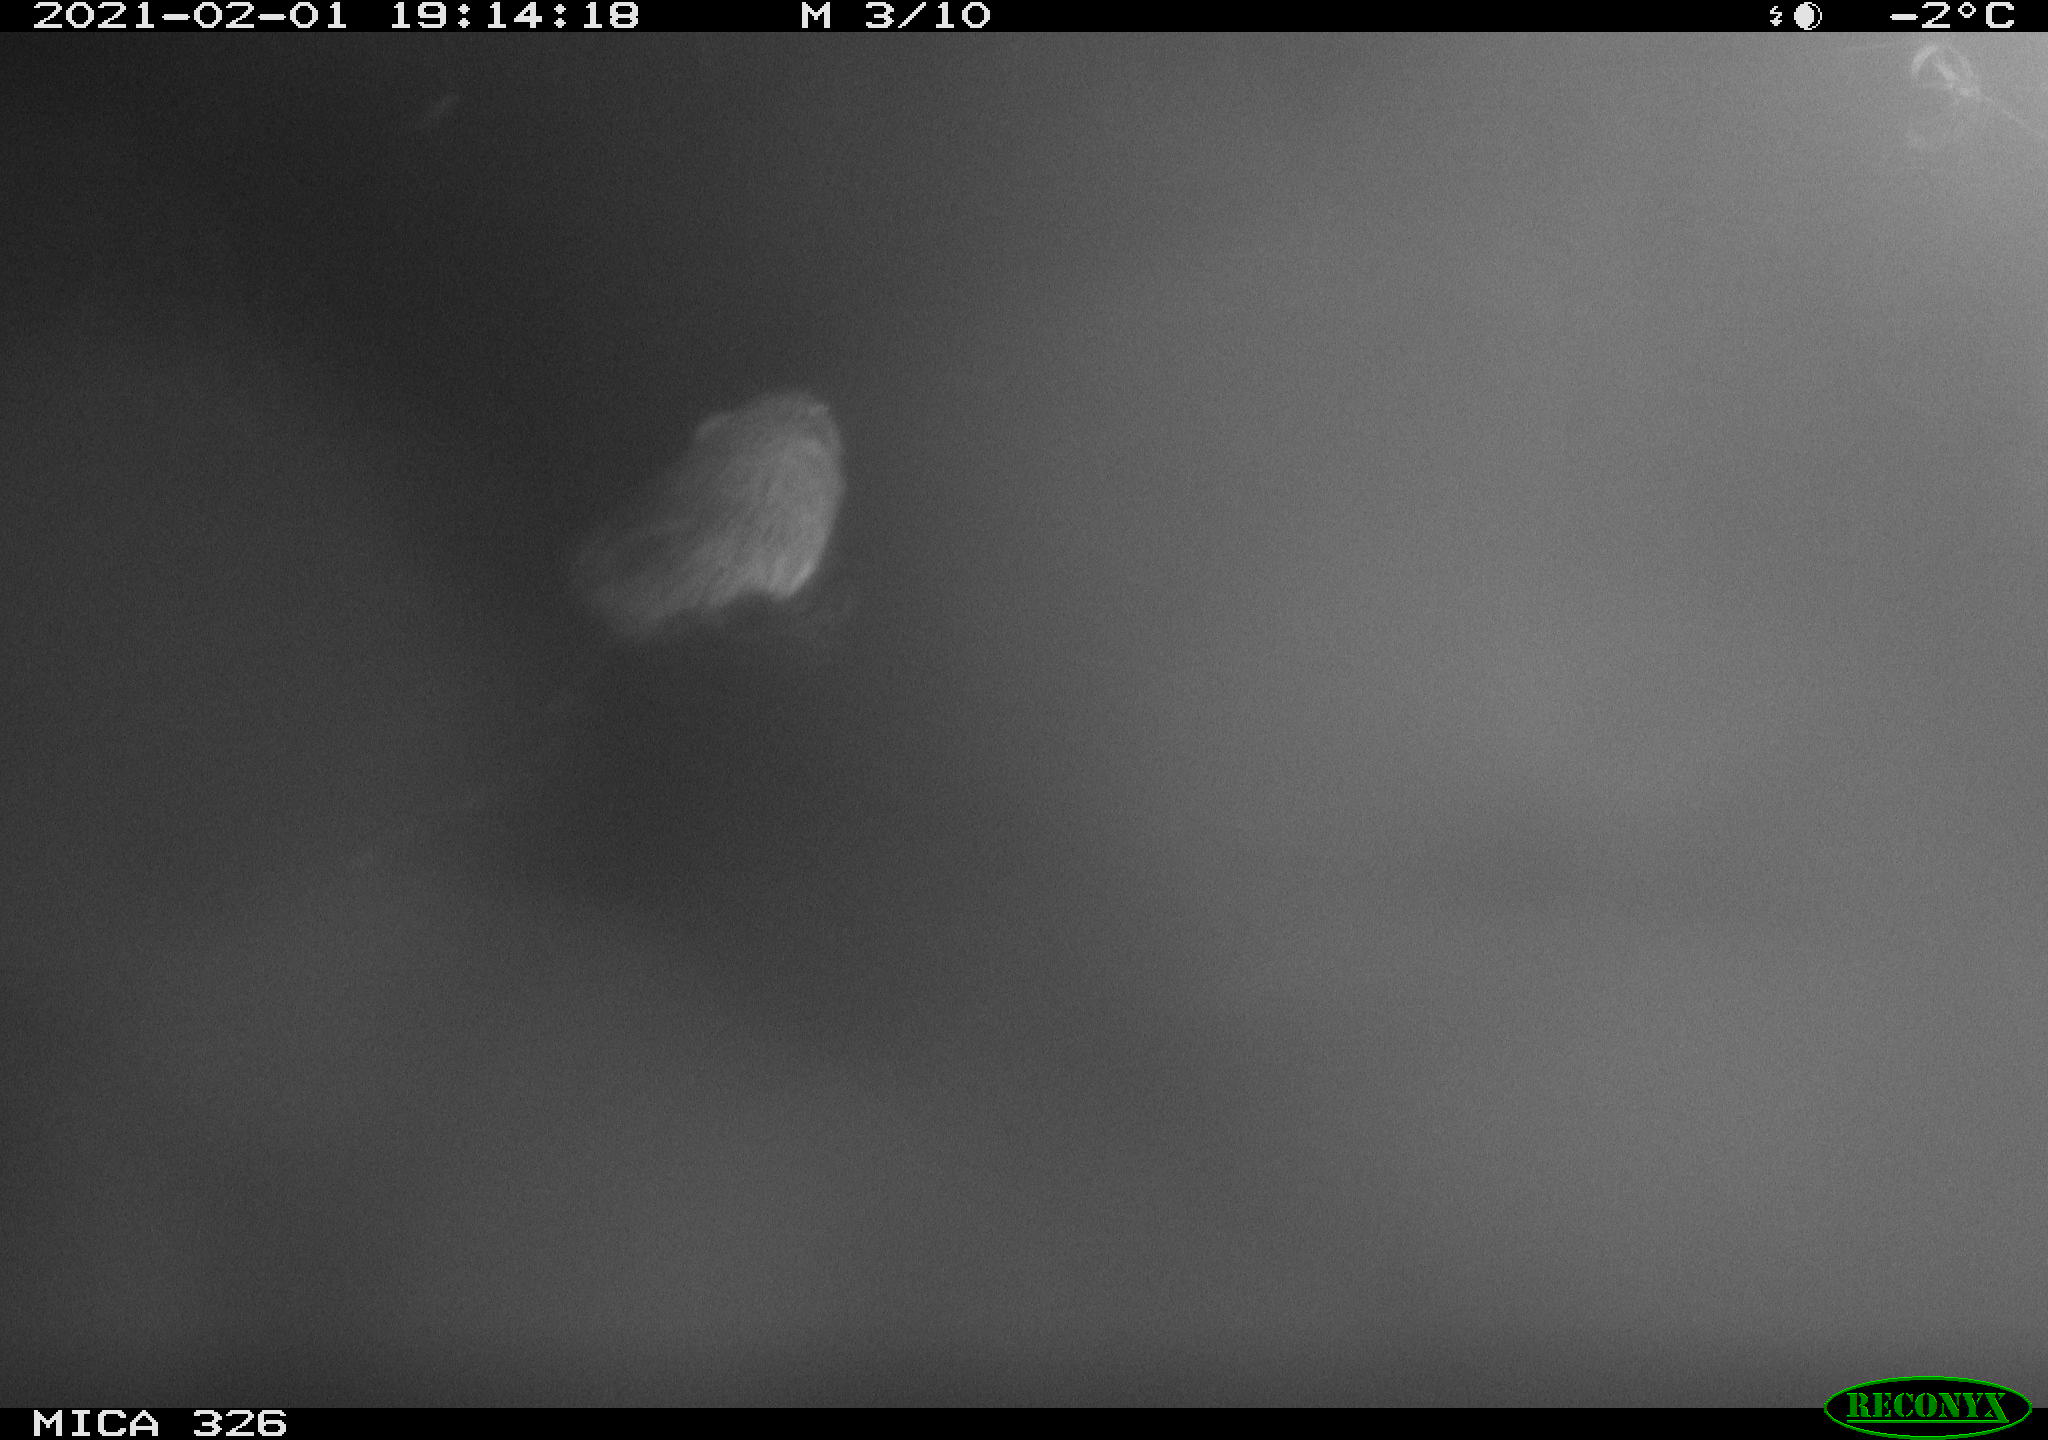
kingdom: Animalia
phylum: Chordata
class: Mammalia
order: Rodentia
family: Cricetidae
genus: Ondatra
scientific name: Ondatra zibethicus
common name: Muskrat
